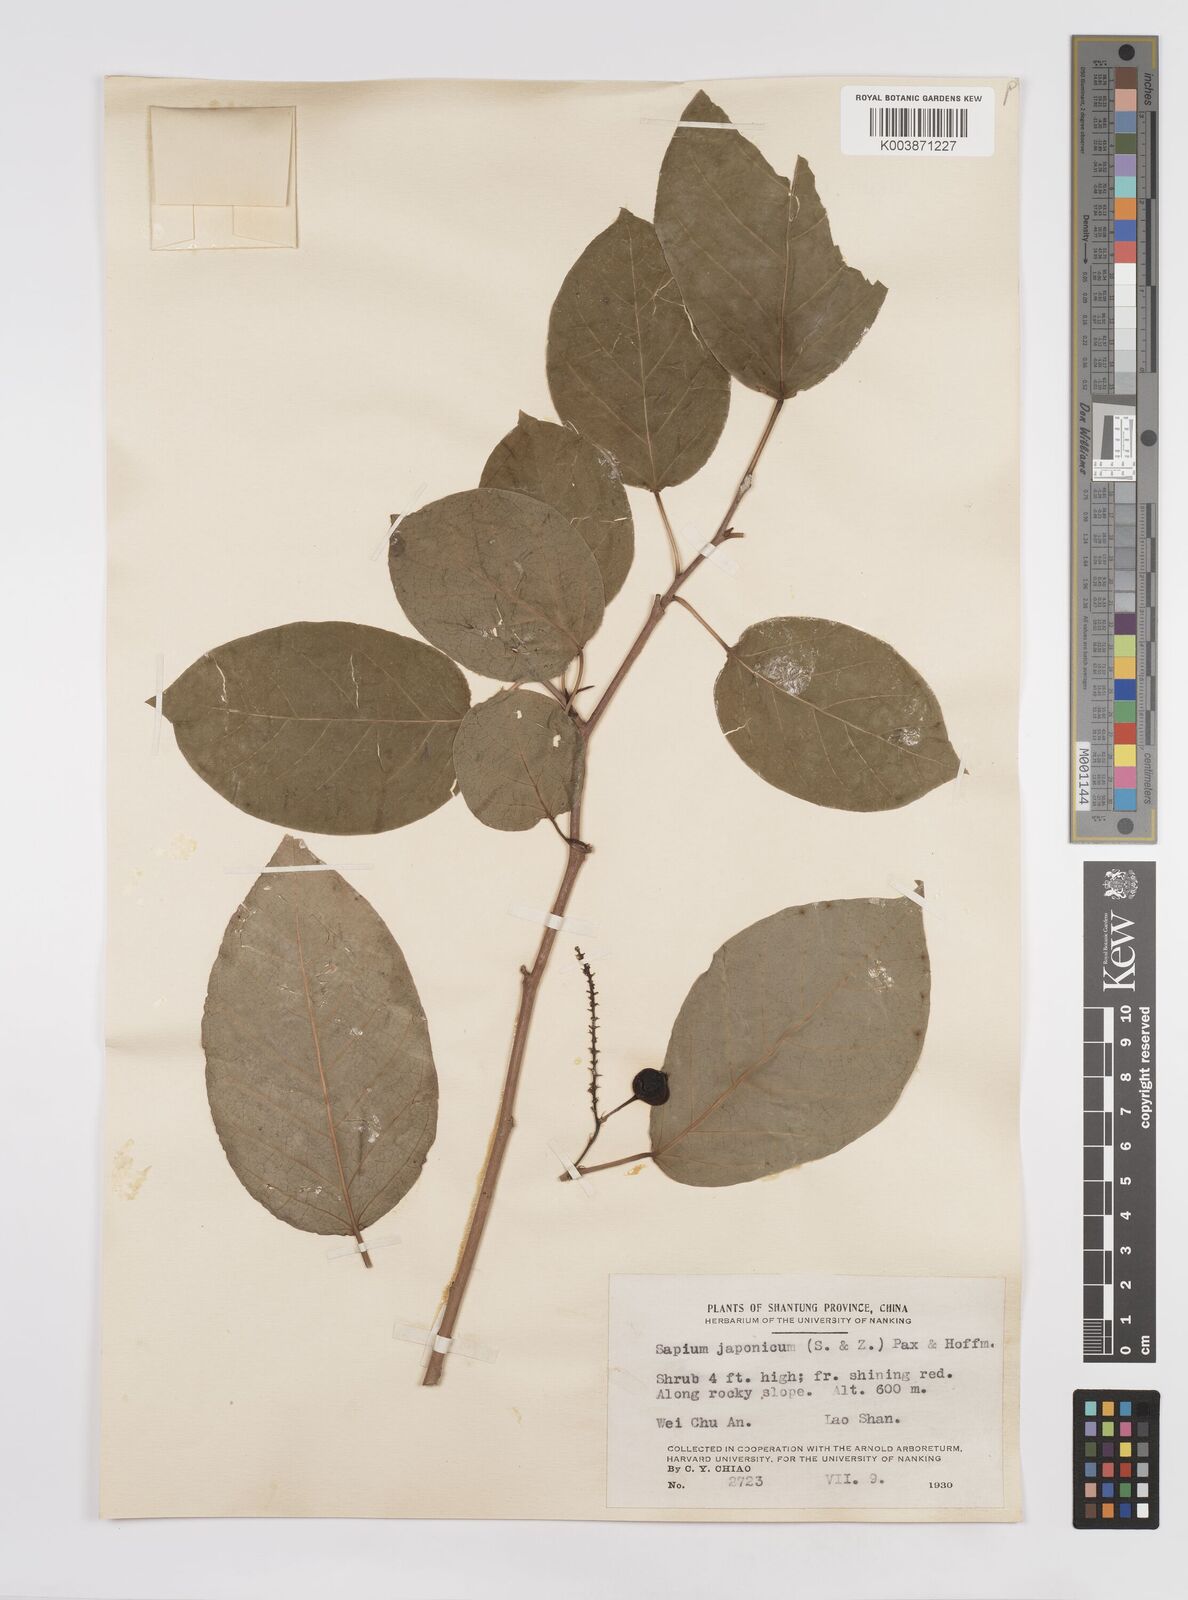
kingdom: Plantae
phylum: Tracheophyta
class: Magnoliopsida
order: Malpighiales
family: Euphorbiaceae
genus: Neoshirakia
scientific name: Neoshirakia japonica
